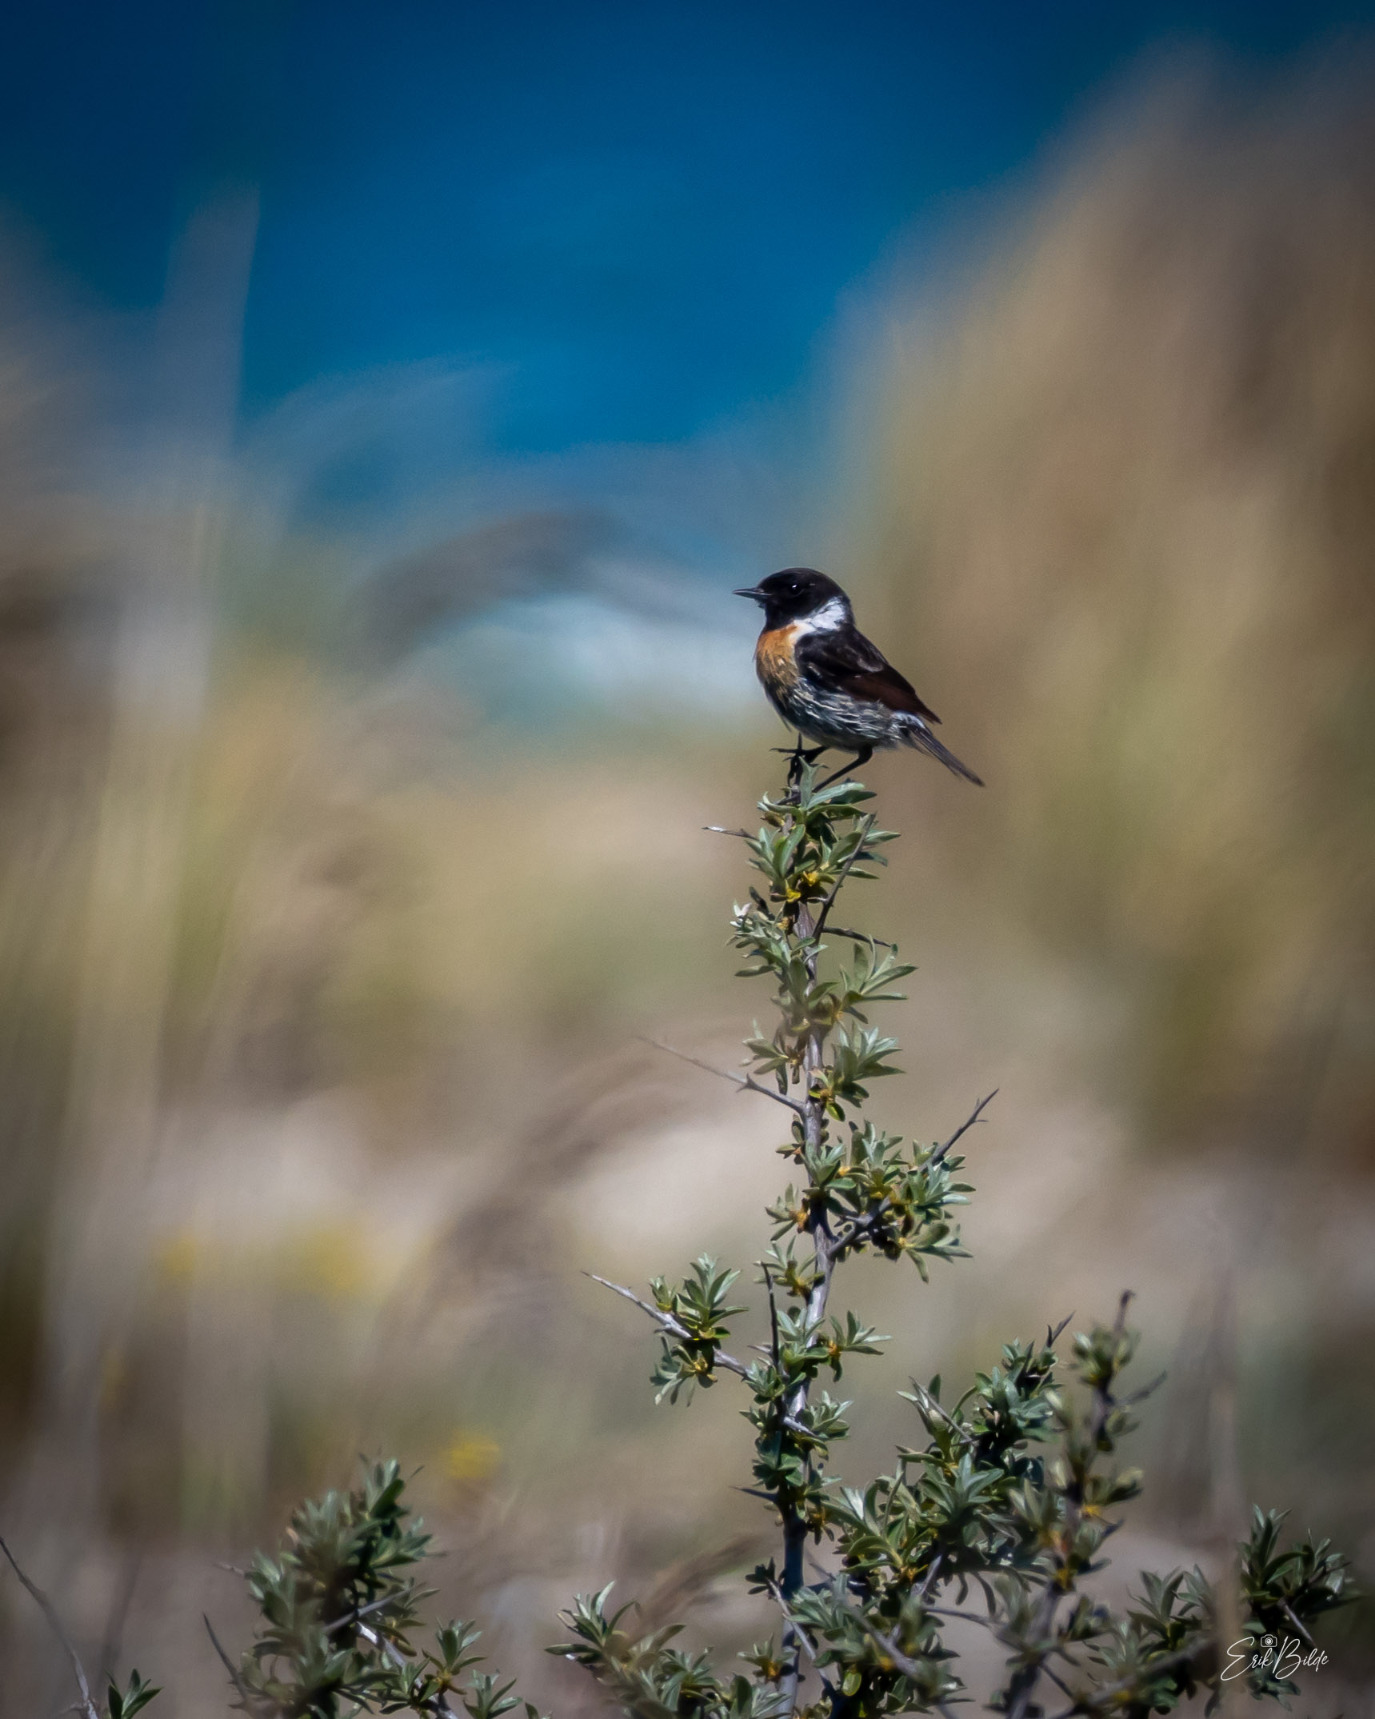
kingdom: Animalia
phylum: Chordata
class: Aves
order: Passeriformes
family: Muscicapidae
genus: Saxicola
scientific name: Saxicola rubicola
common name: Sortstrubet bynkefugl
